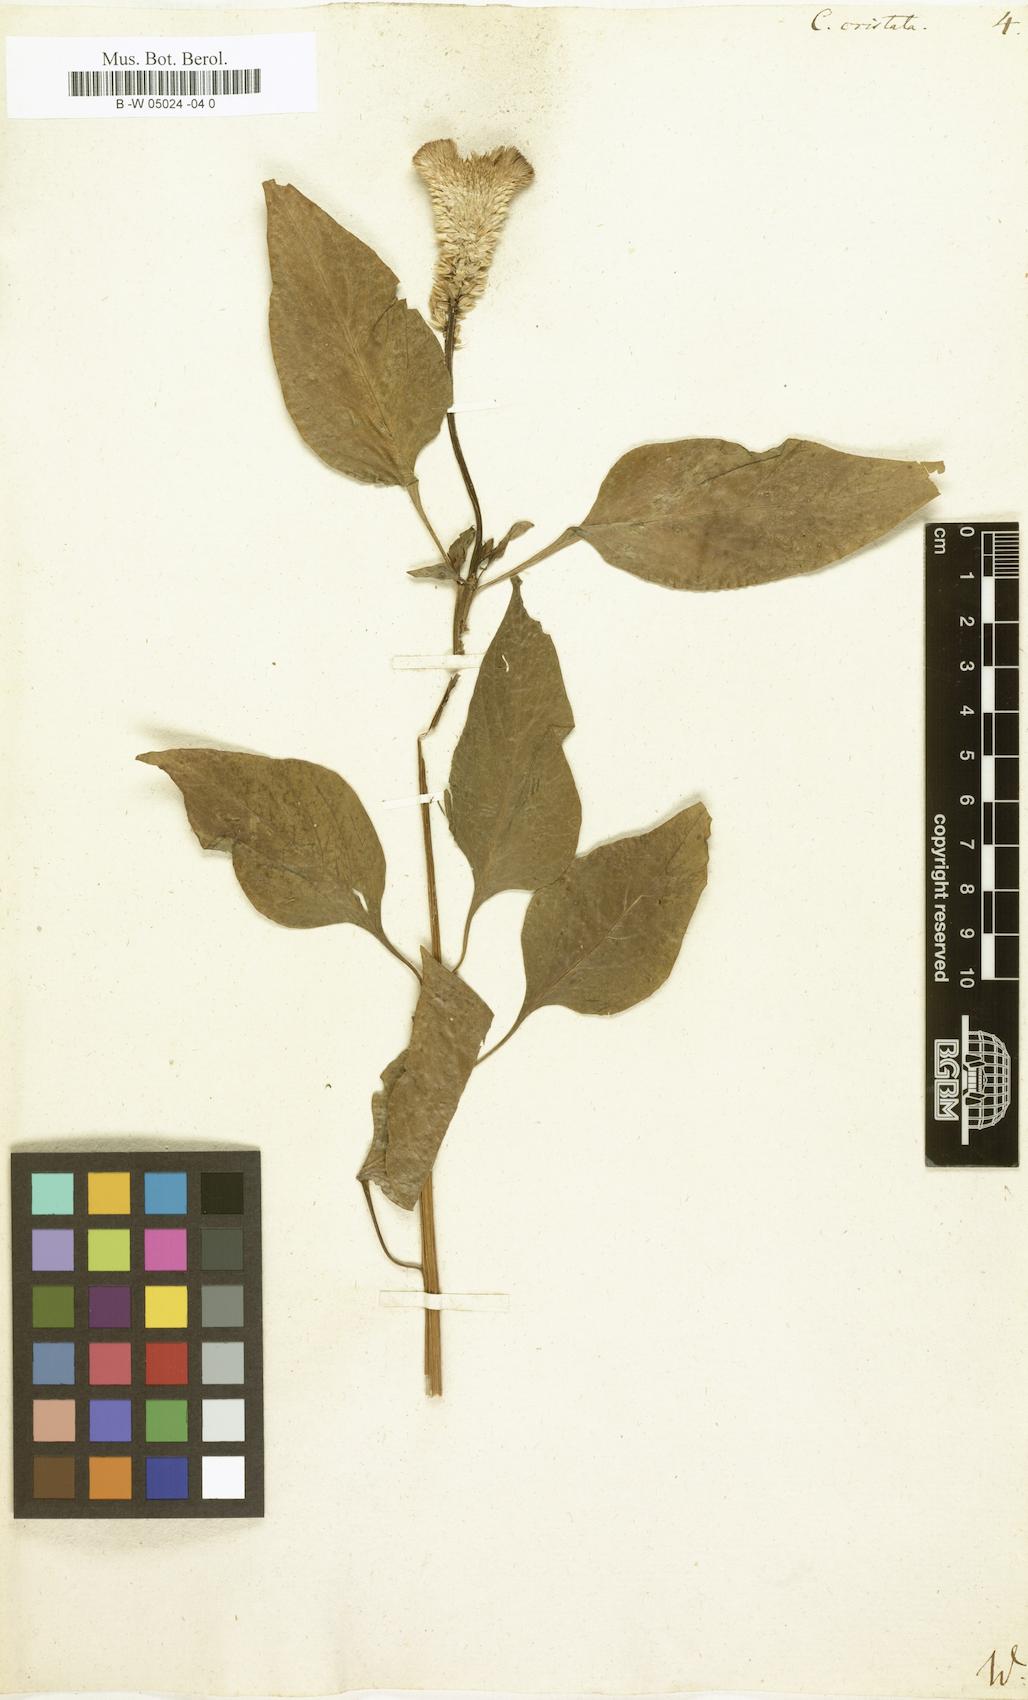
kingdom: Plantae
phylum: Tracheophyta
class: Magnoliopsida
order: Caryophyllales
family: Amaranthaceae
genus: Celosia
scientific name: Celosia argentea
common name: Feather cockscomb
